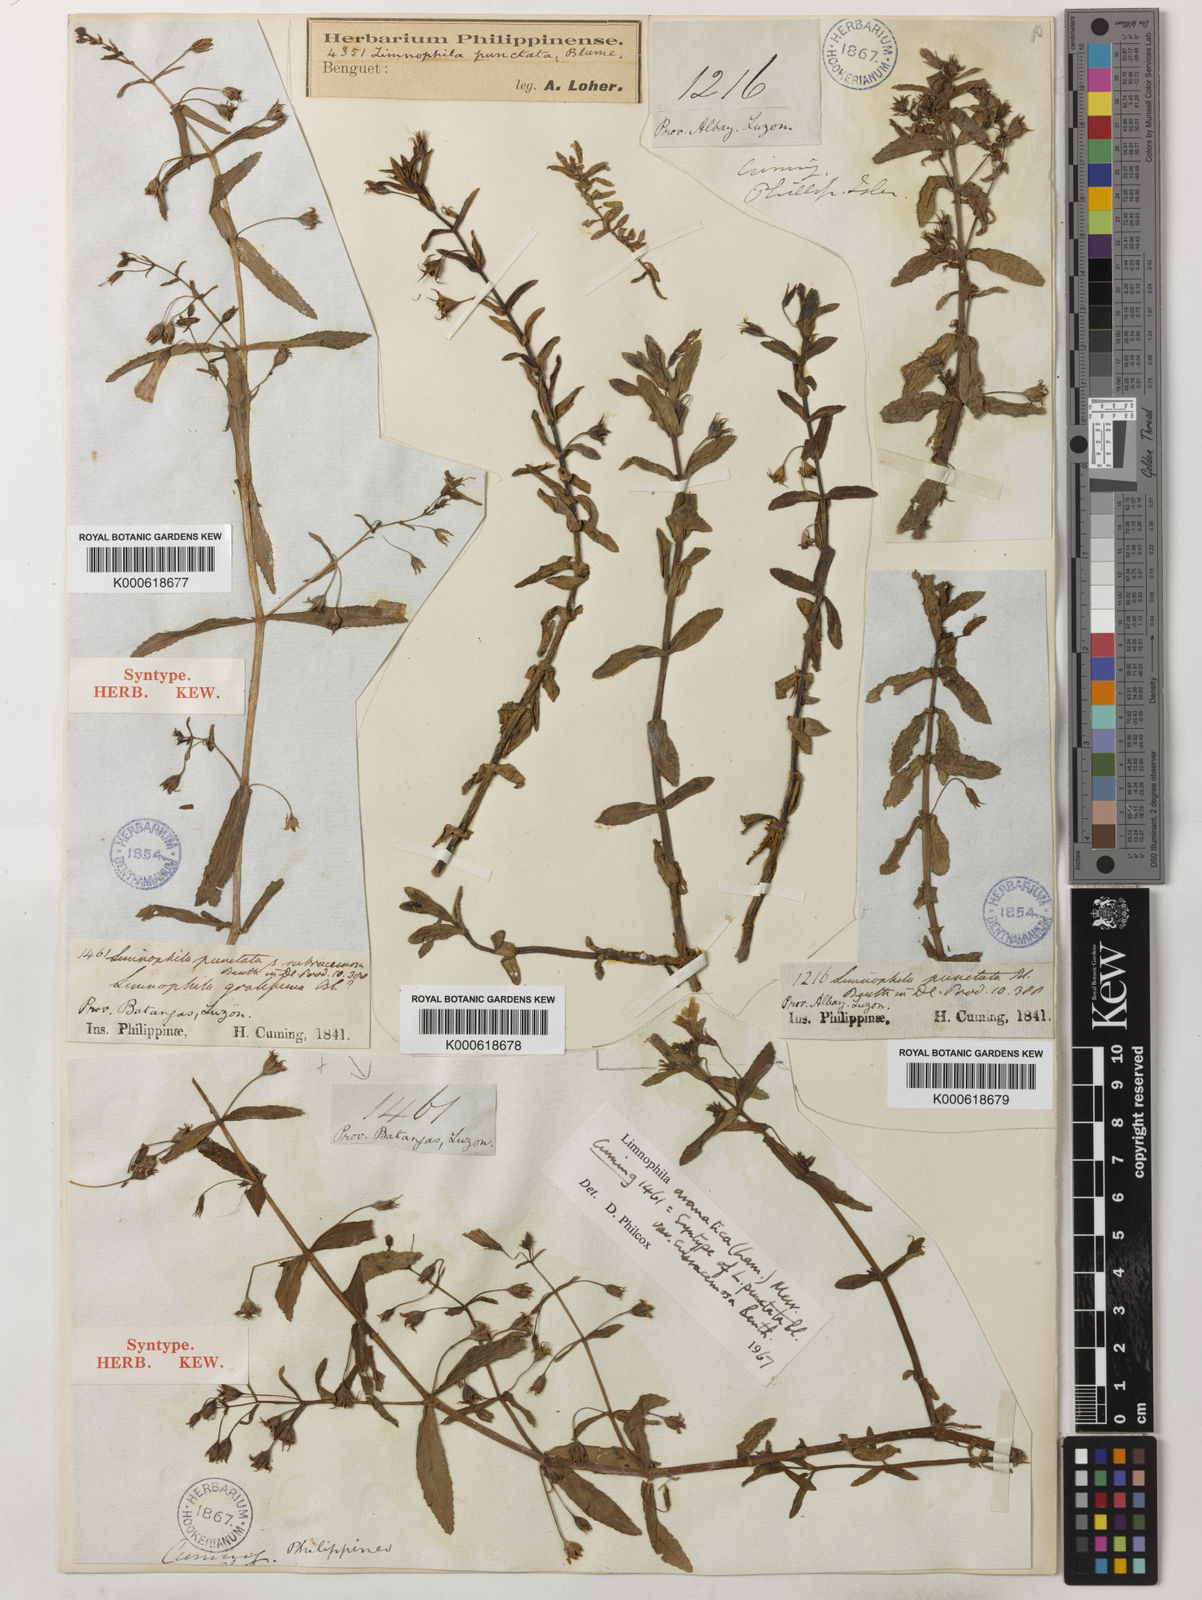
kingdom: Plantae
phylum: Tracheophyta
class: Magnoliopsida
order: Lamiales
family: Plantaginaceae
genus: Limnophila
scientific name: Limnophila aromatica
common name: Finger grass
